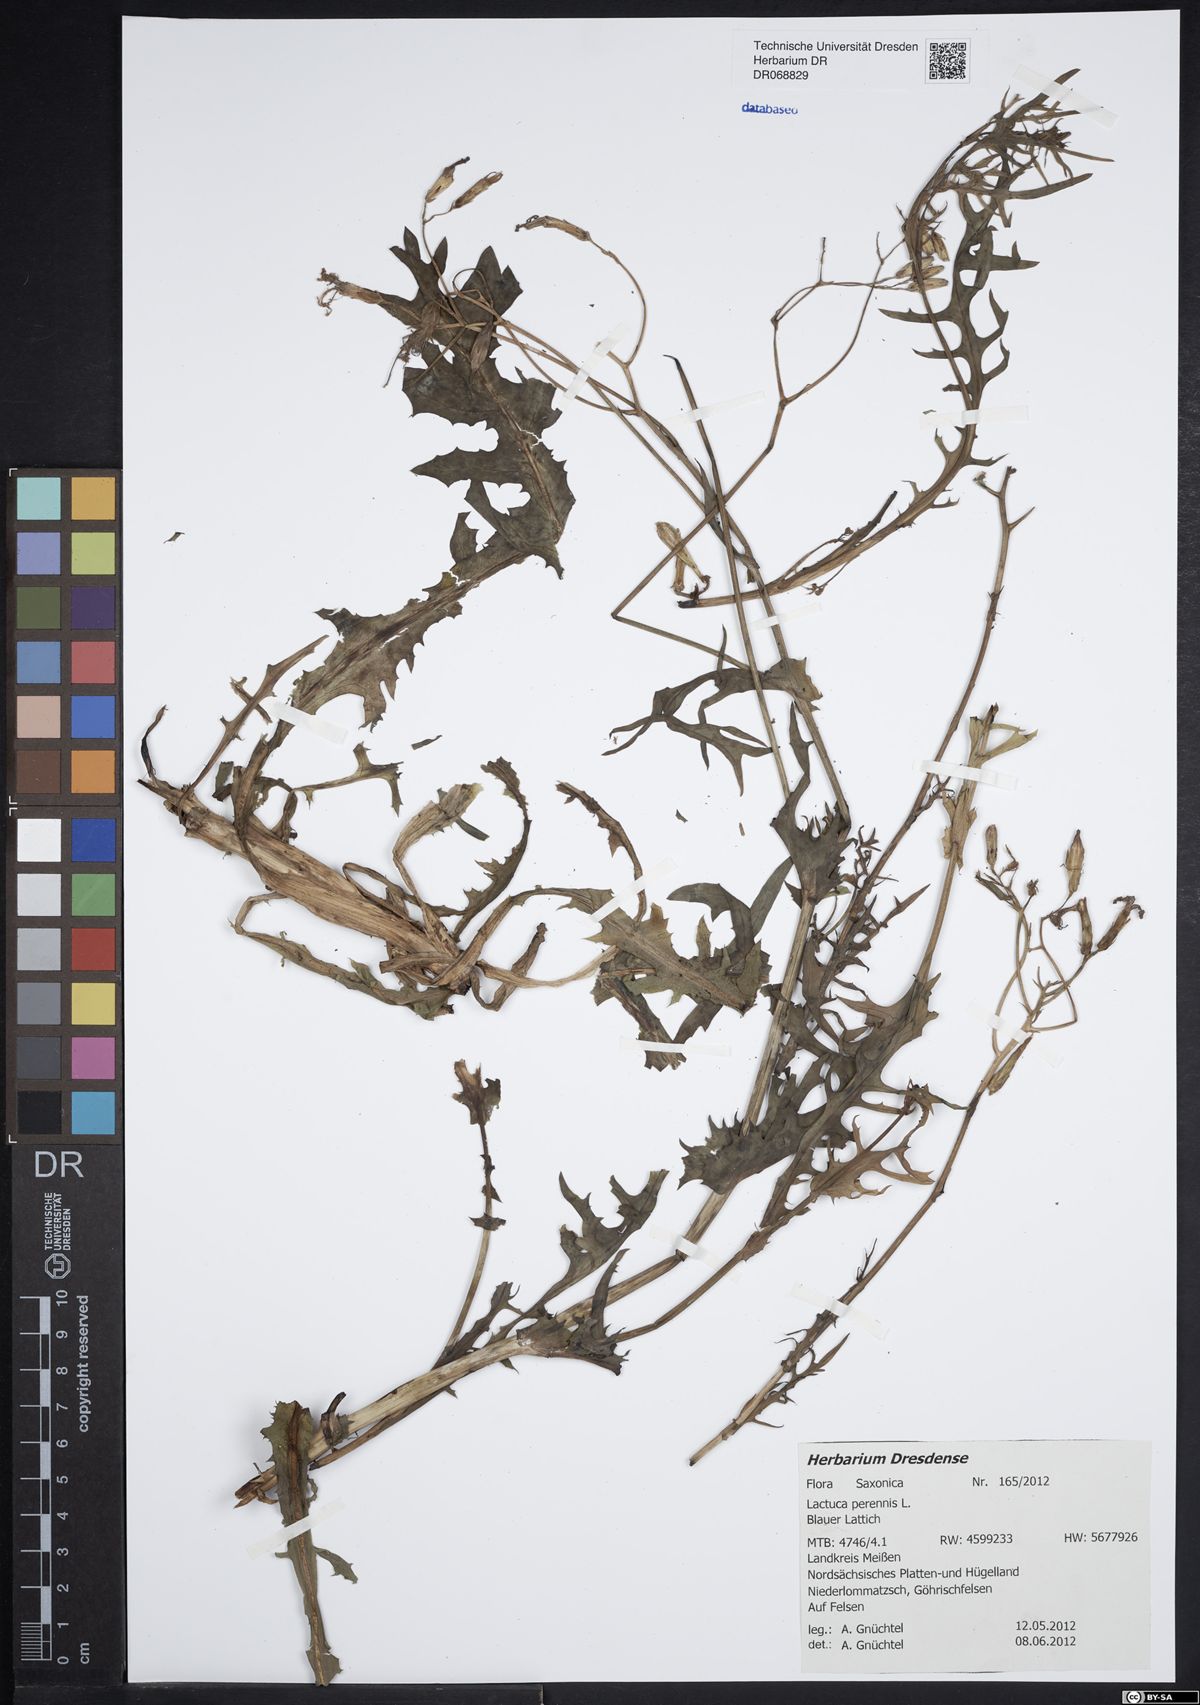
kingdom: Plantae
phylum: Tracheophyta
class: Magnoliopsida
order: Asterales
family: Asteraceae
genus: Lactuca
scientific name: Lactuca perennis
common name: Mountain lettuce
